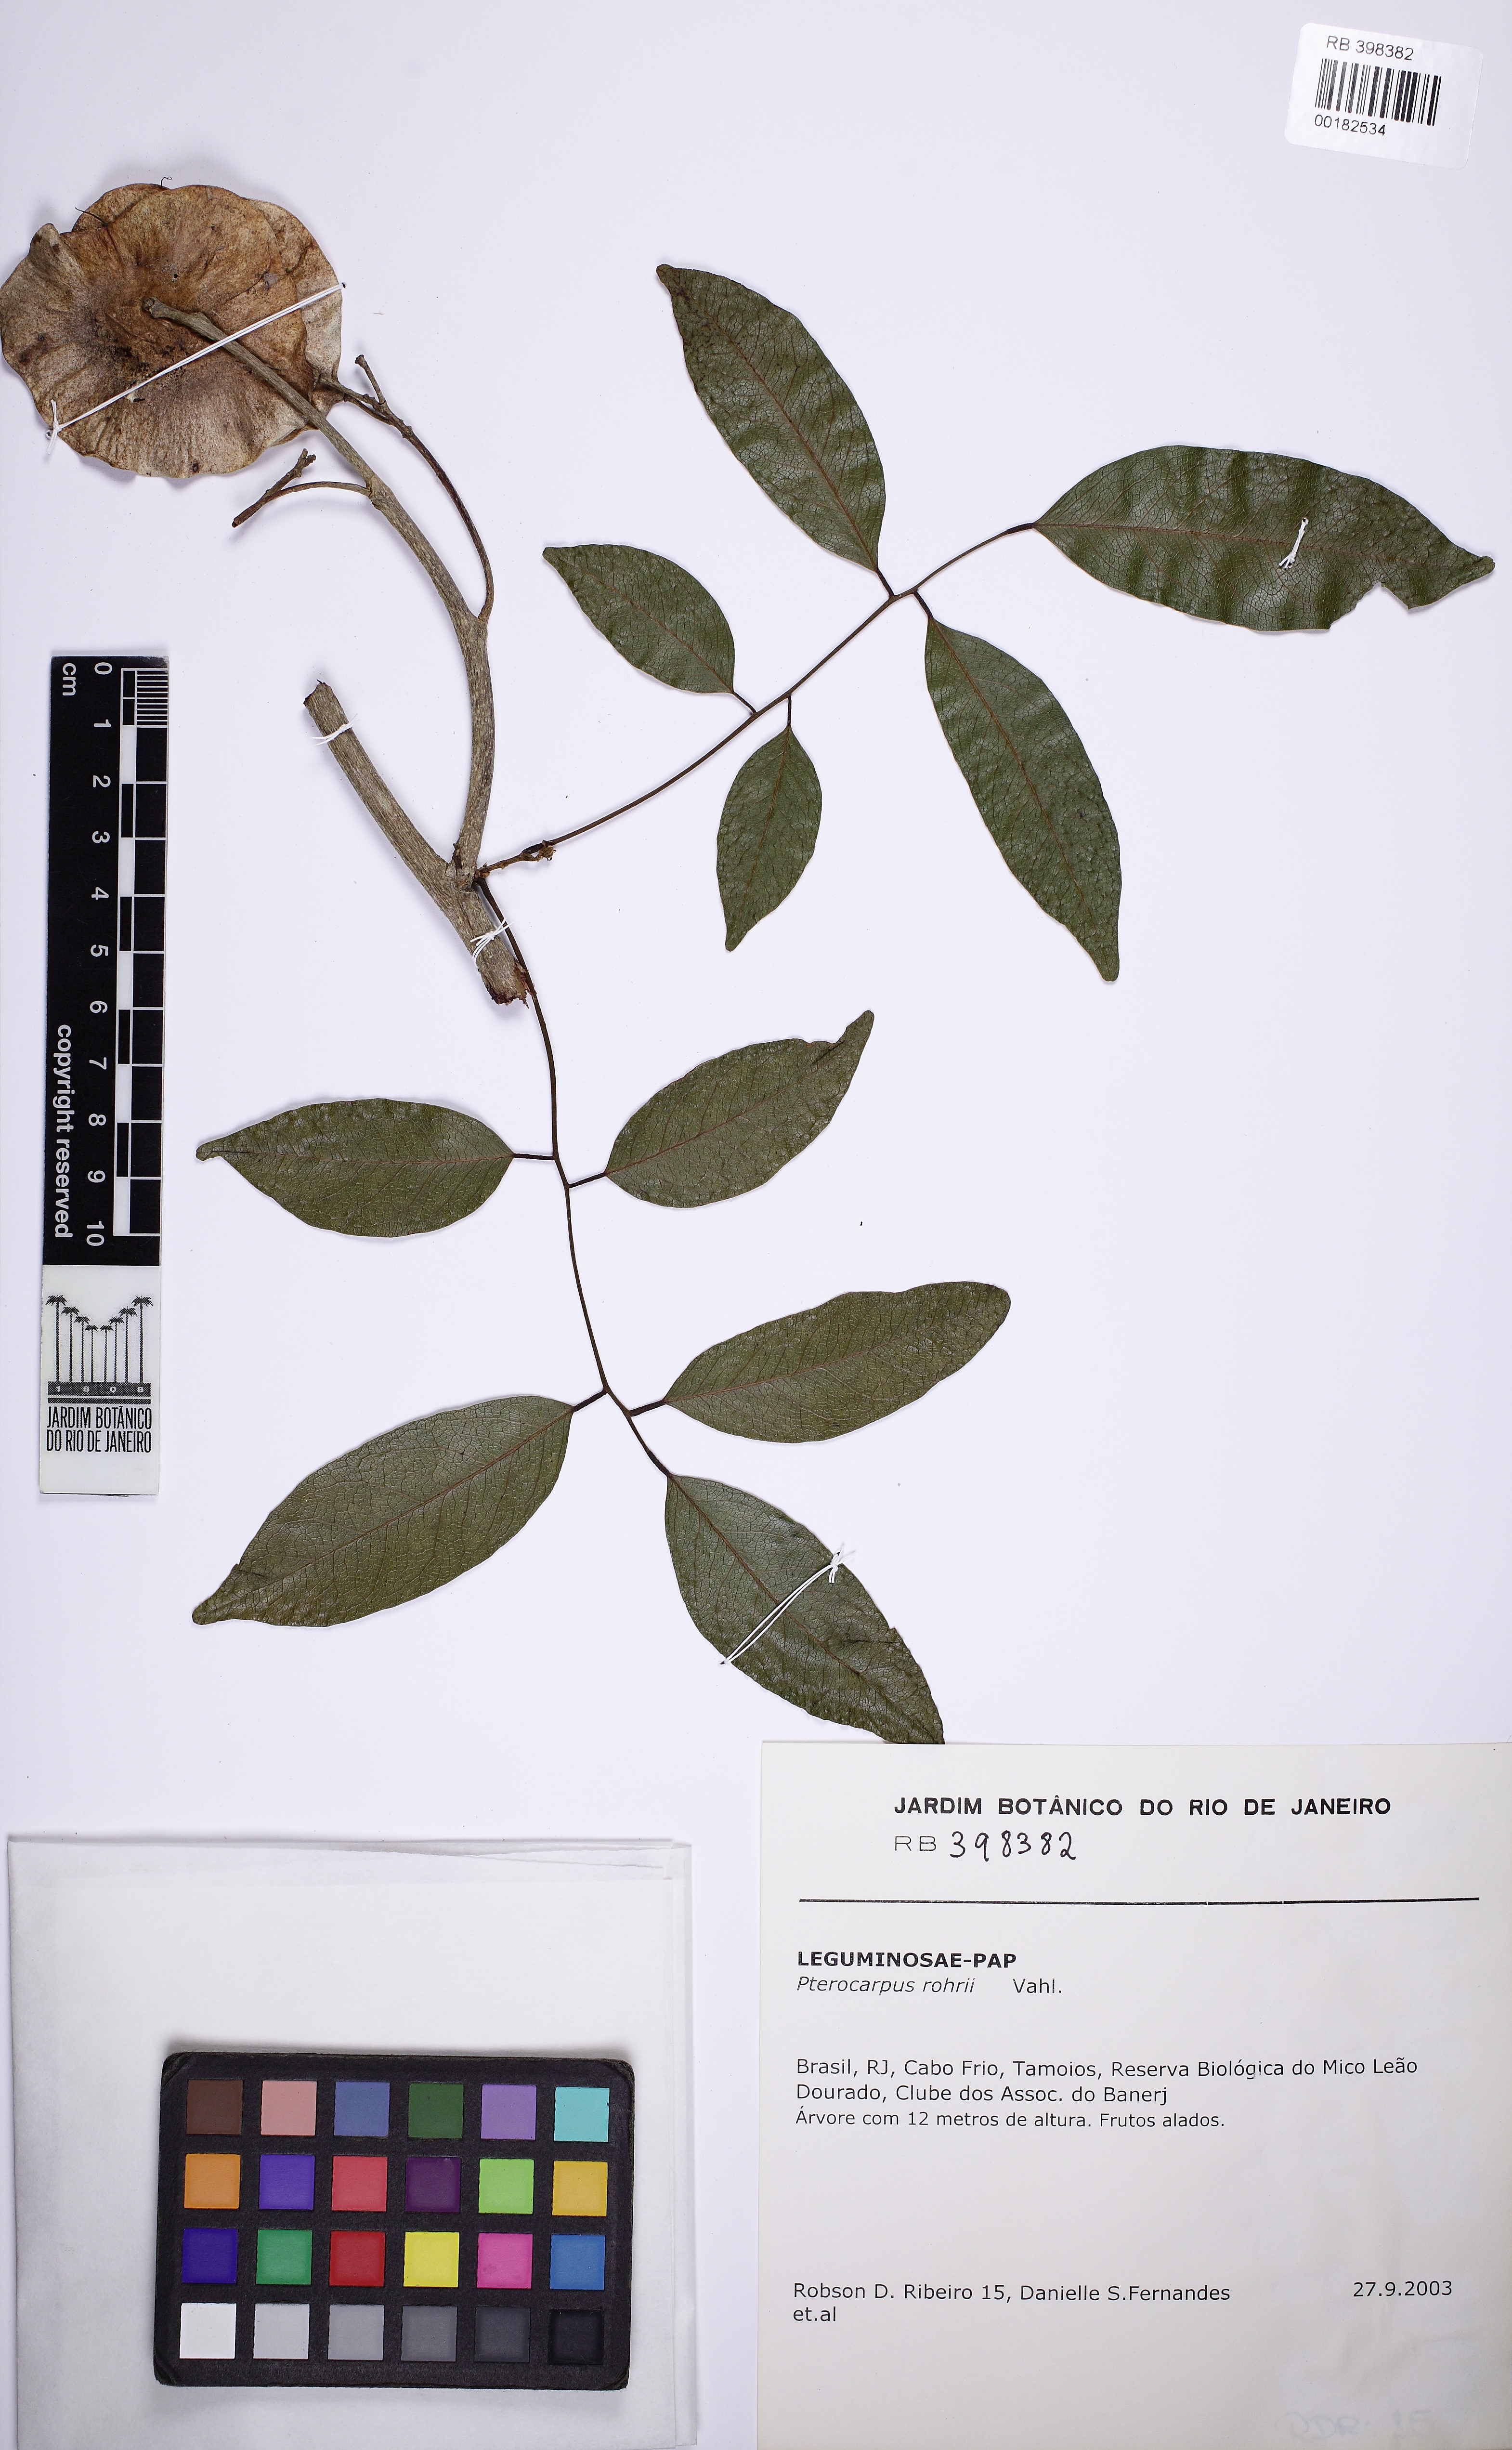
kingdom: Plantae
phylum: Tracheophyta
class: Magnoliopsida
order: Fabales
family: Fabaceae
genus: Pterocarpus
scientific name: Pterocarpus rohrii
